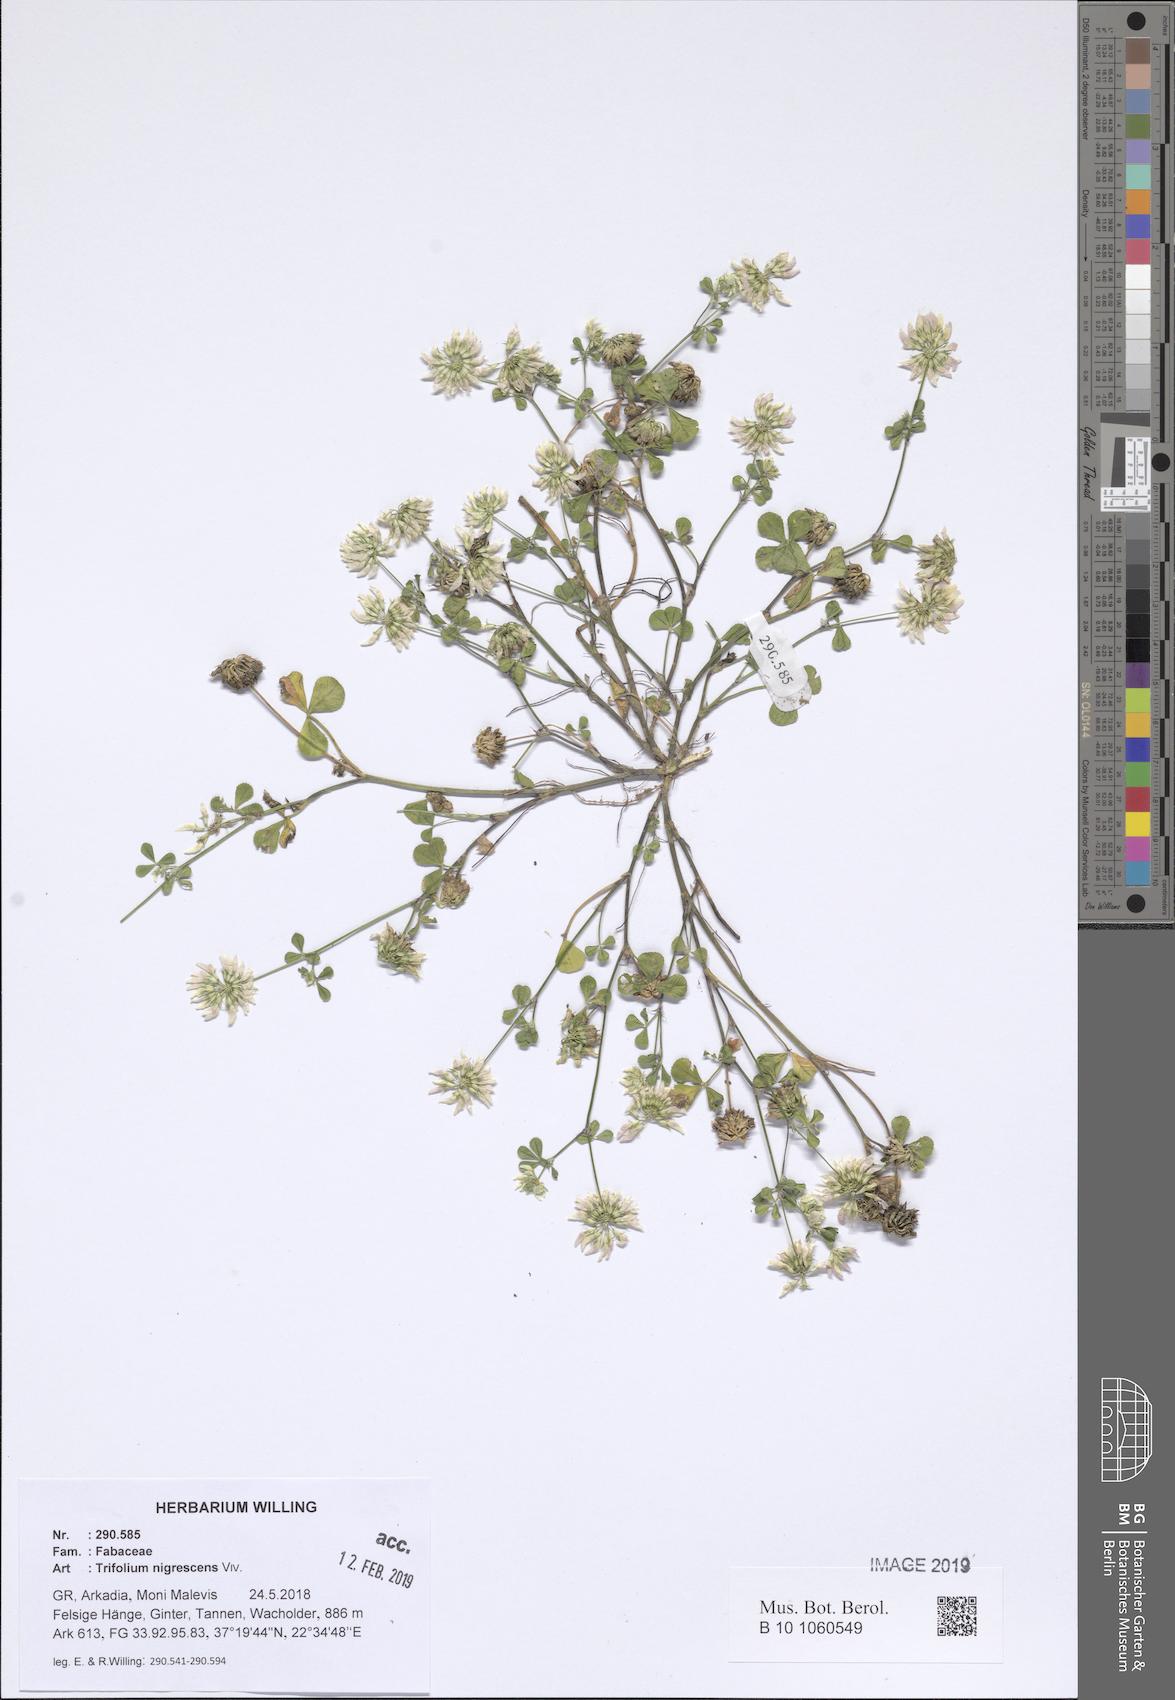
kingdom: Plantae
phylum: Tracheophyta
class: Magnoliopsida
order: Fabales
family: Fabaceae
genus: Trifolium
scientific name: Trifolium nigrescens
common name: Small white clover
